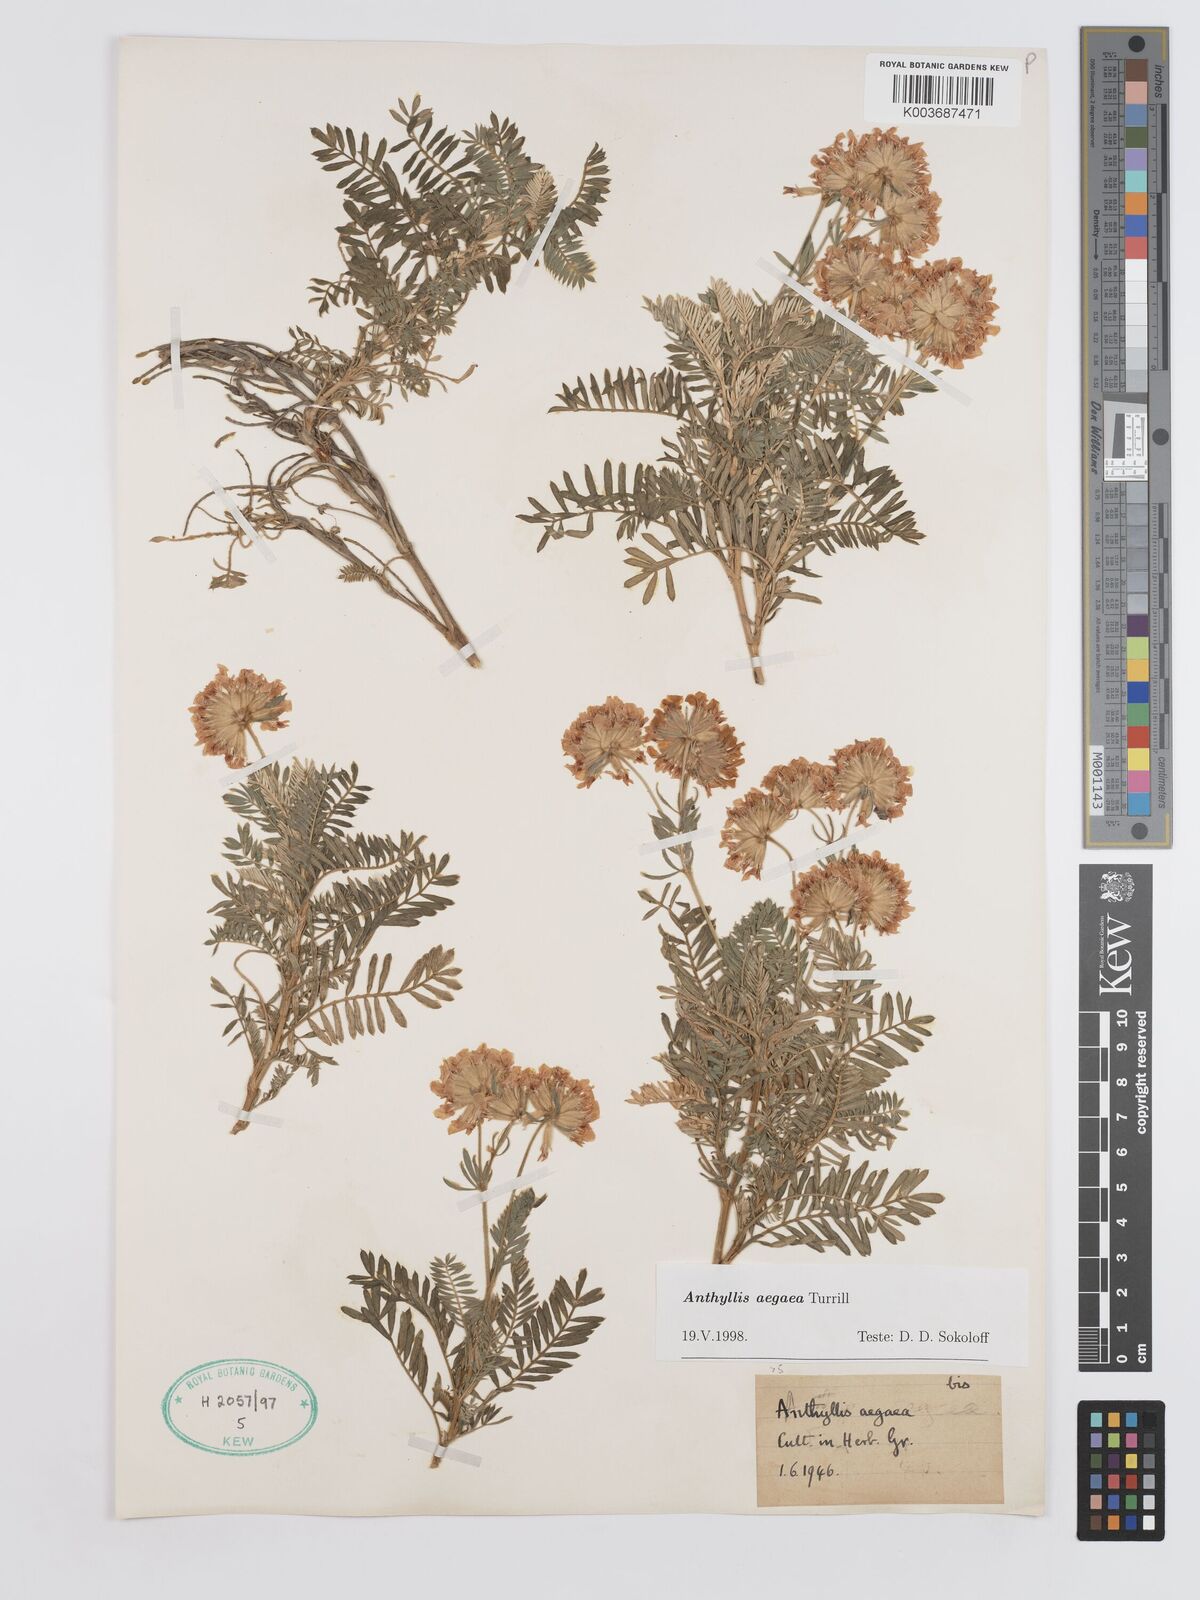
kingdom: Plantae
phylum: Tracheophyta
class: Magnoliopsida
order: Fabales
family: Fabaceae
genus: Anthyllis
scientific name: Anthyllis splendens
